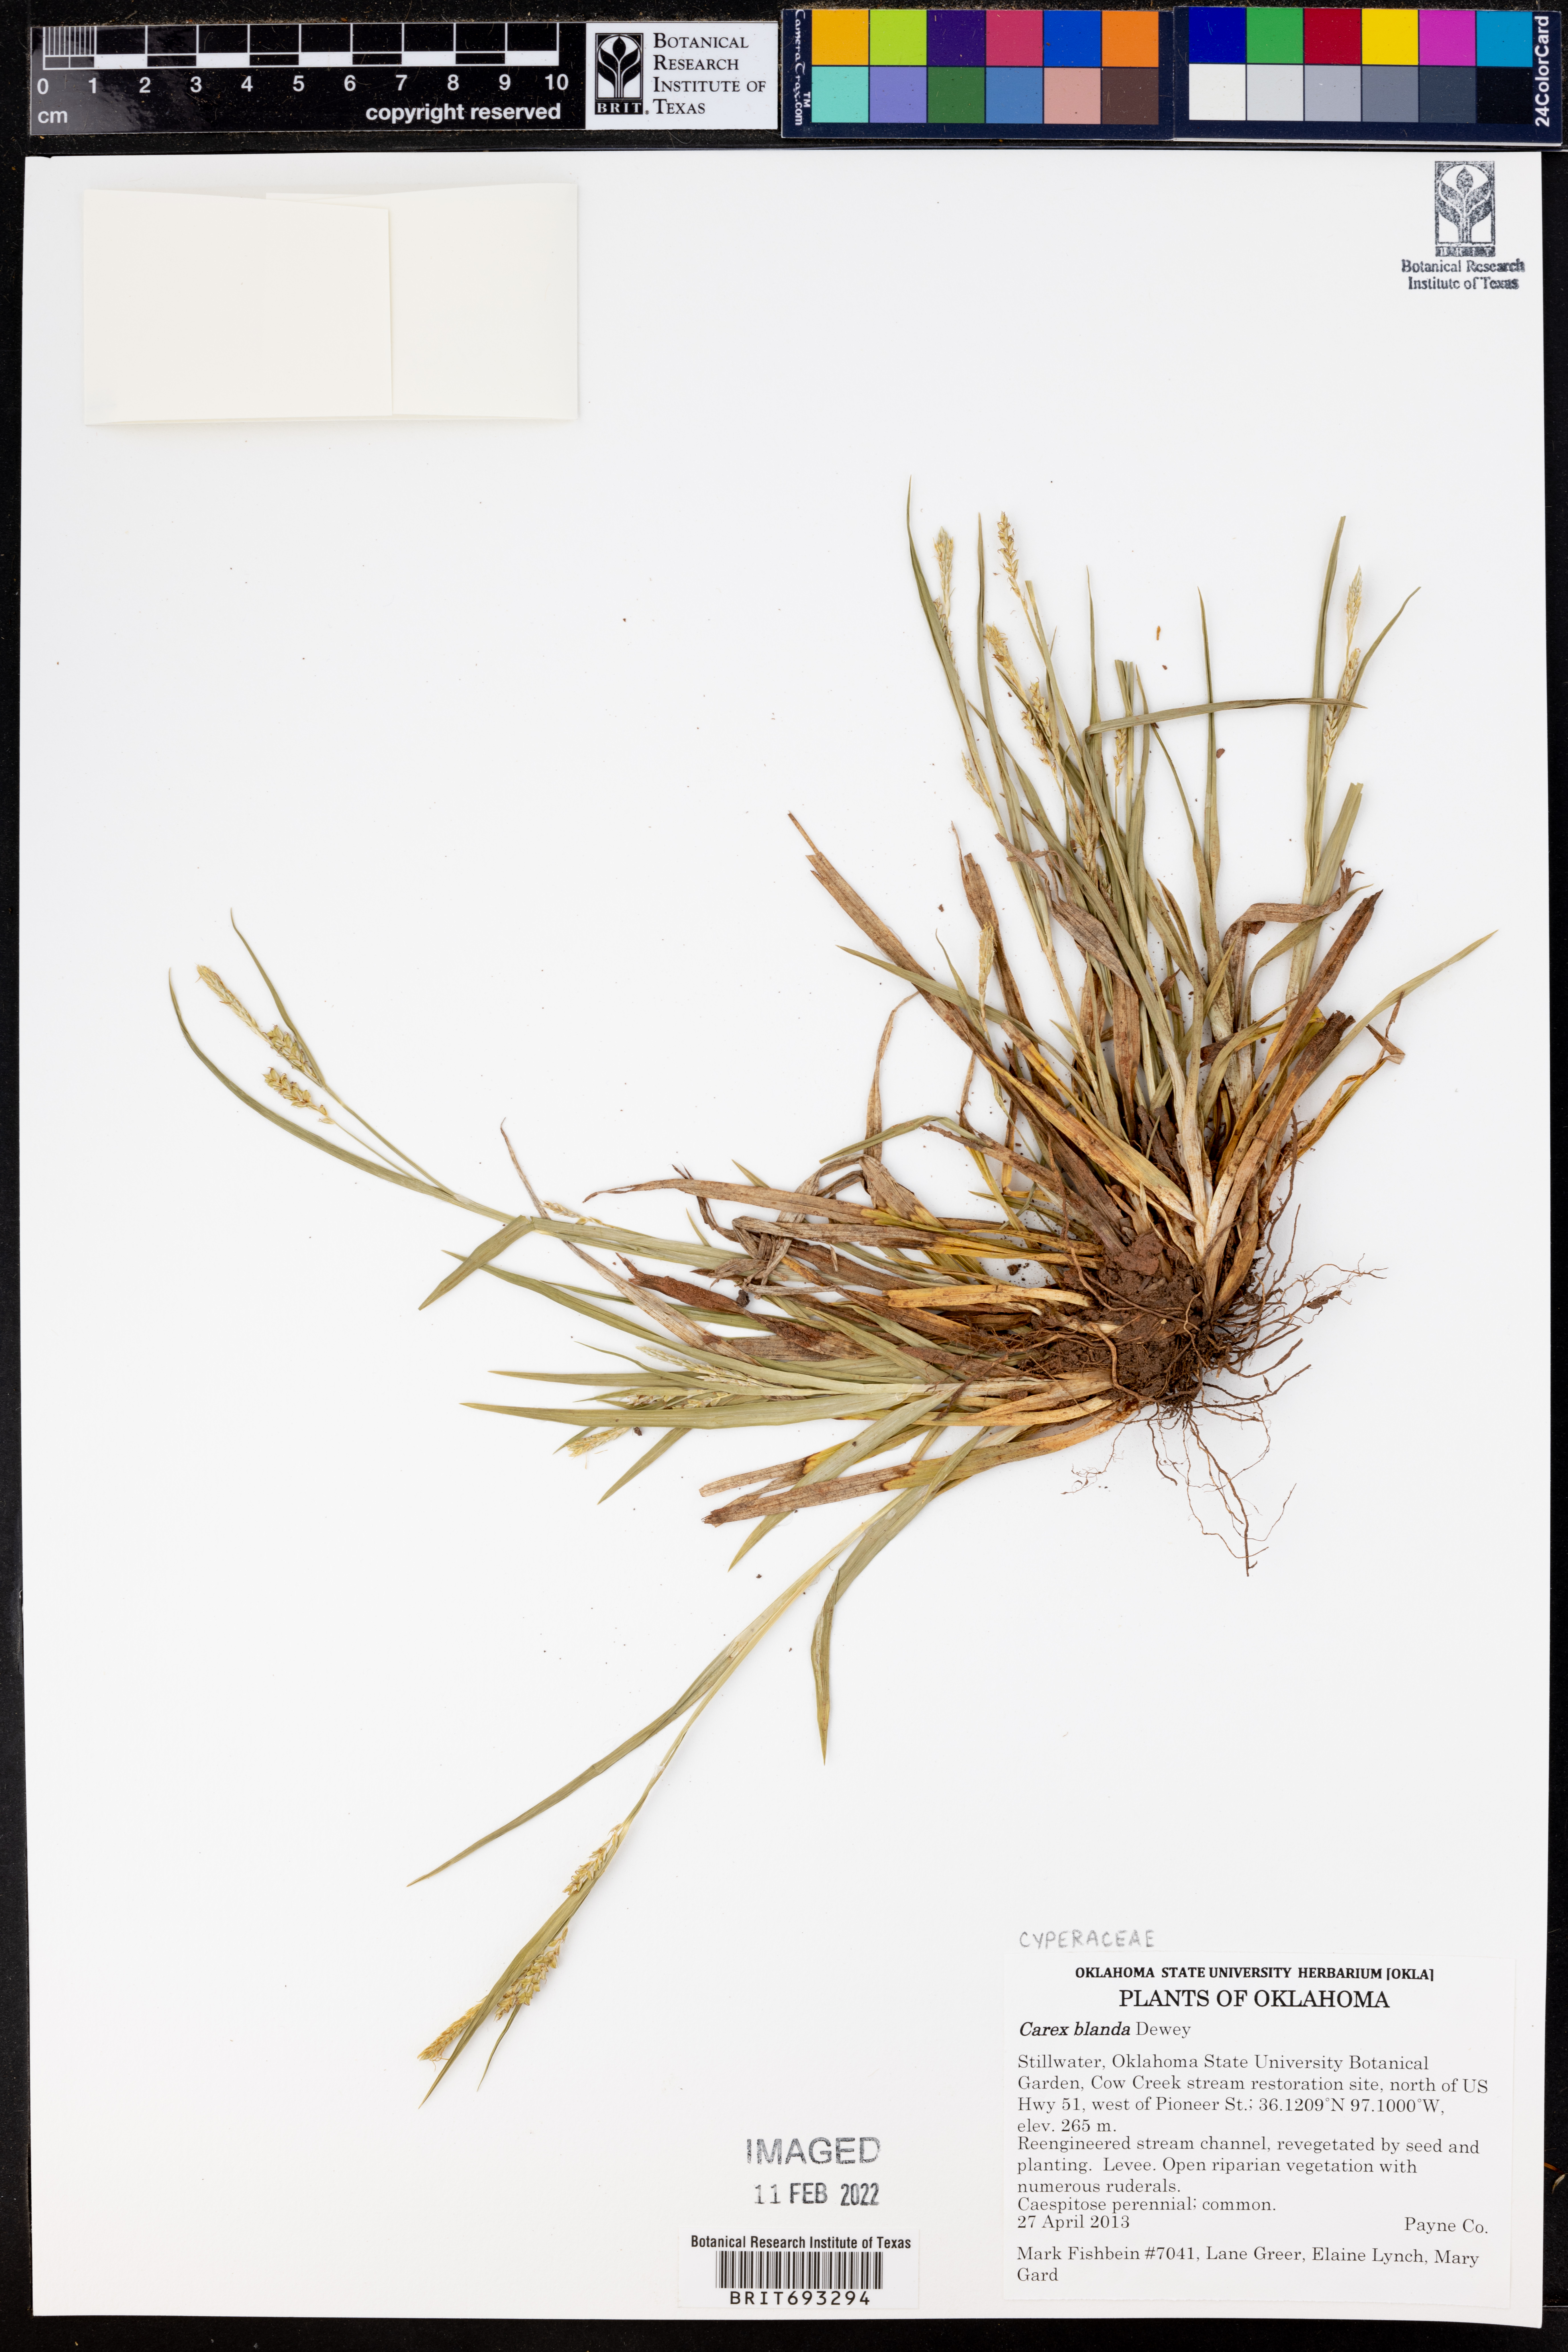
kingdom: Plantae
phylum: Tracheophyta
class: Liliopsida
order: Poales
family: Cyperaceae
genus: Carex
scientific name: Carex blanda
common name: Bland sedge
